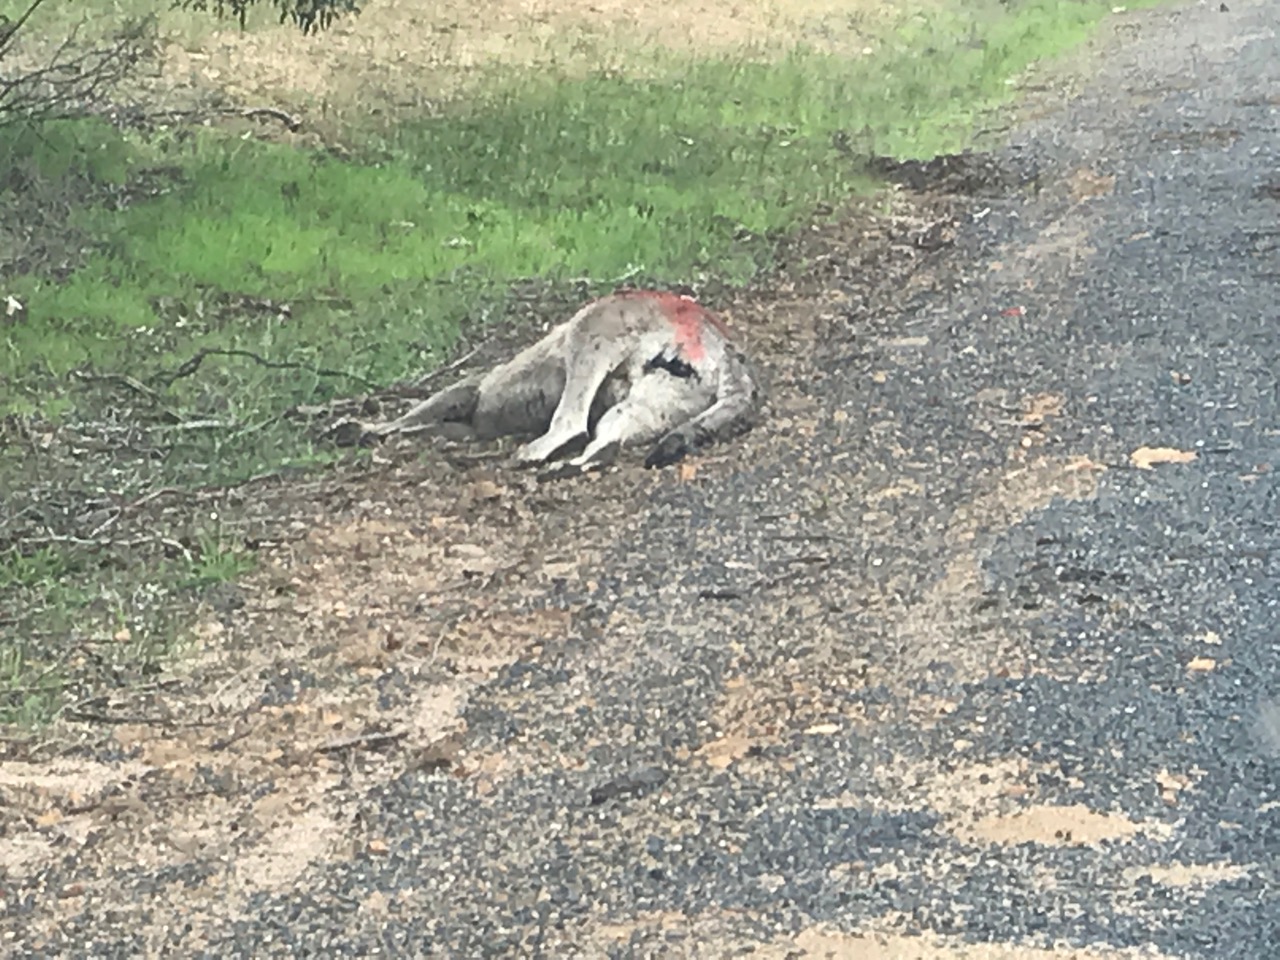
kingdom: Animalia
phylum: Chordata
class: Mammalia
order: Diprotodontia
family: Macropodidae
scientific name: Macropodidae
